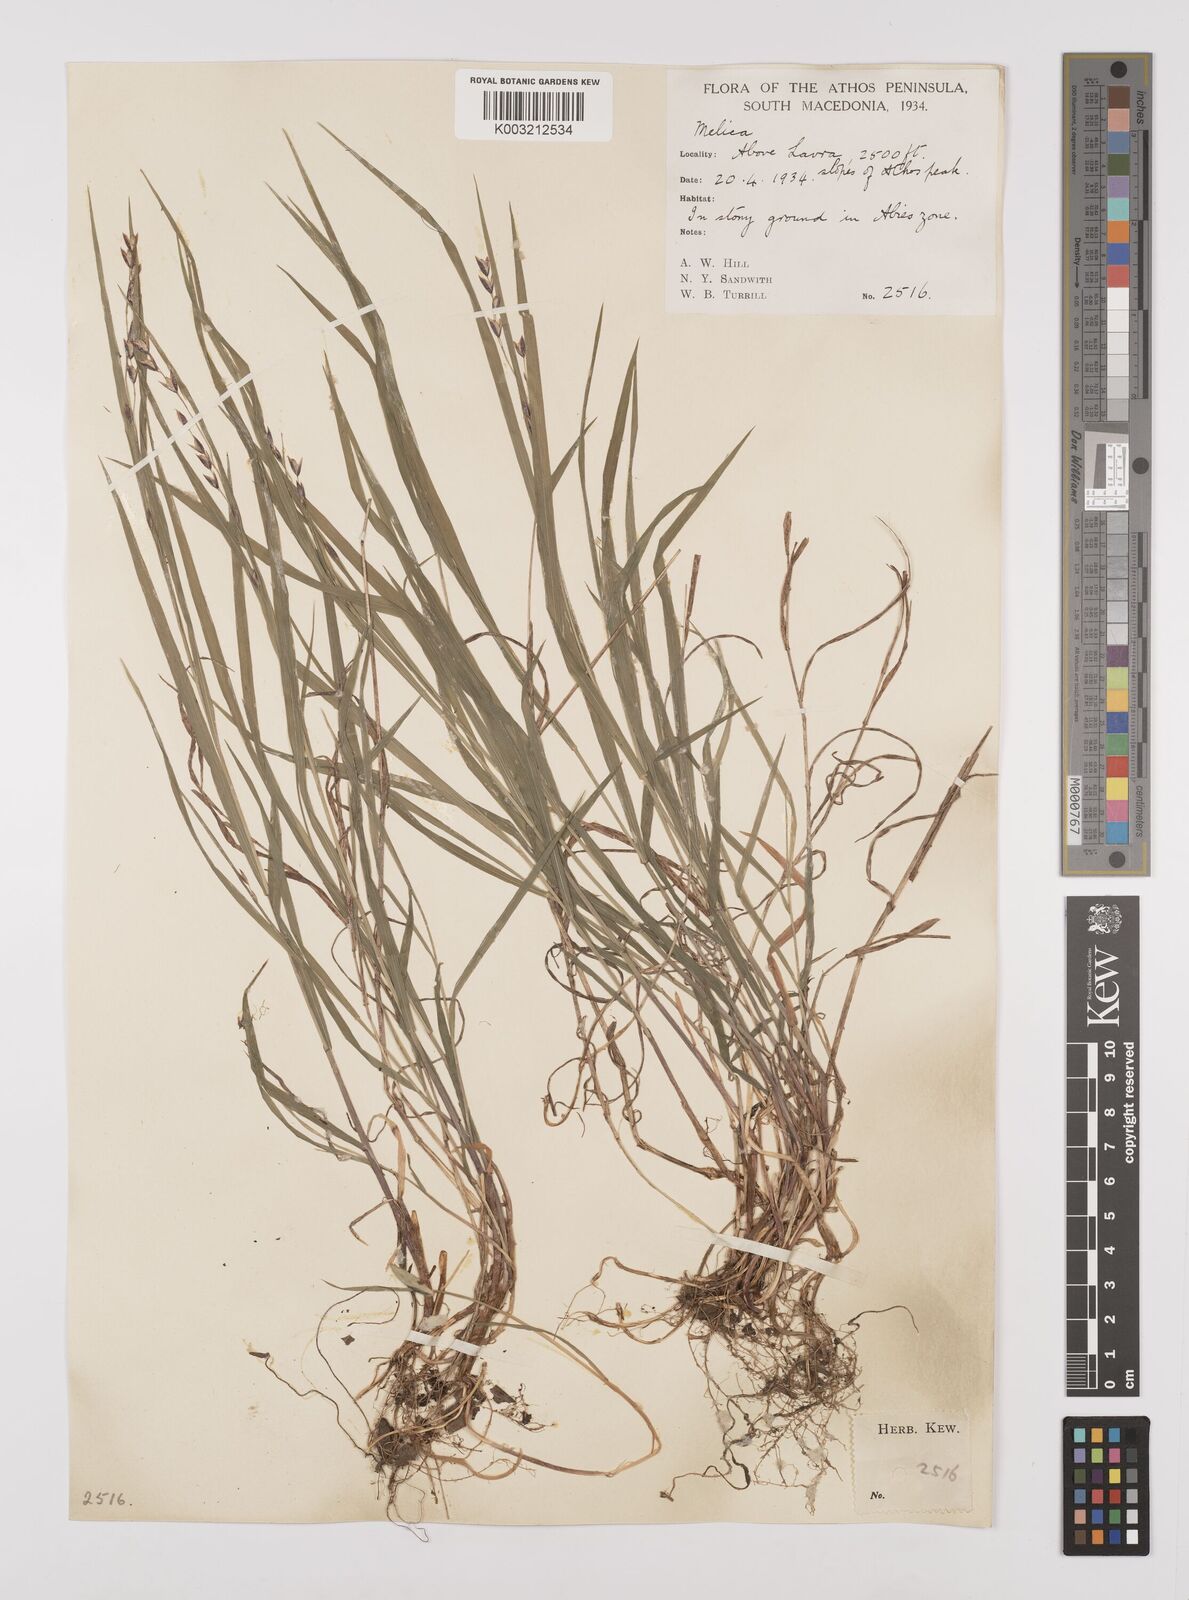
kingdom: Plantae
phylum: Tracheophyta
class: Liliopsida
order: Poales
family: Poaceae
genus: Melica
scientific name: Melica uniflora
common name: Wood melick
